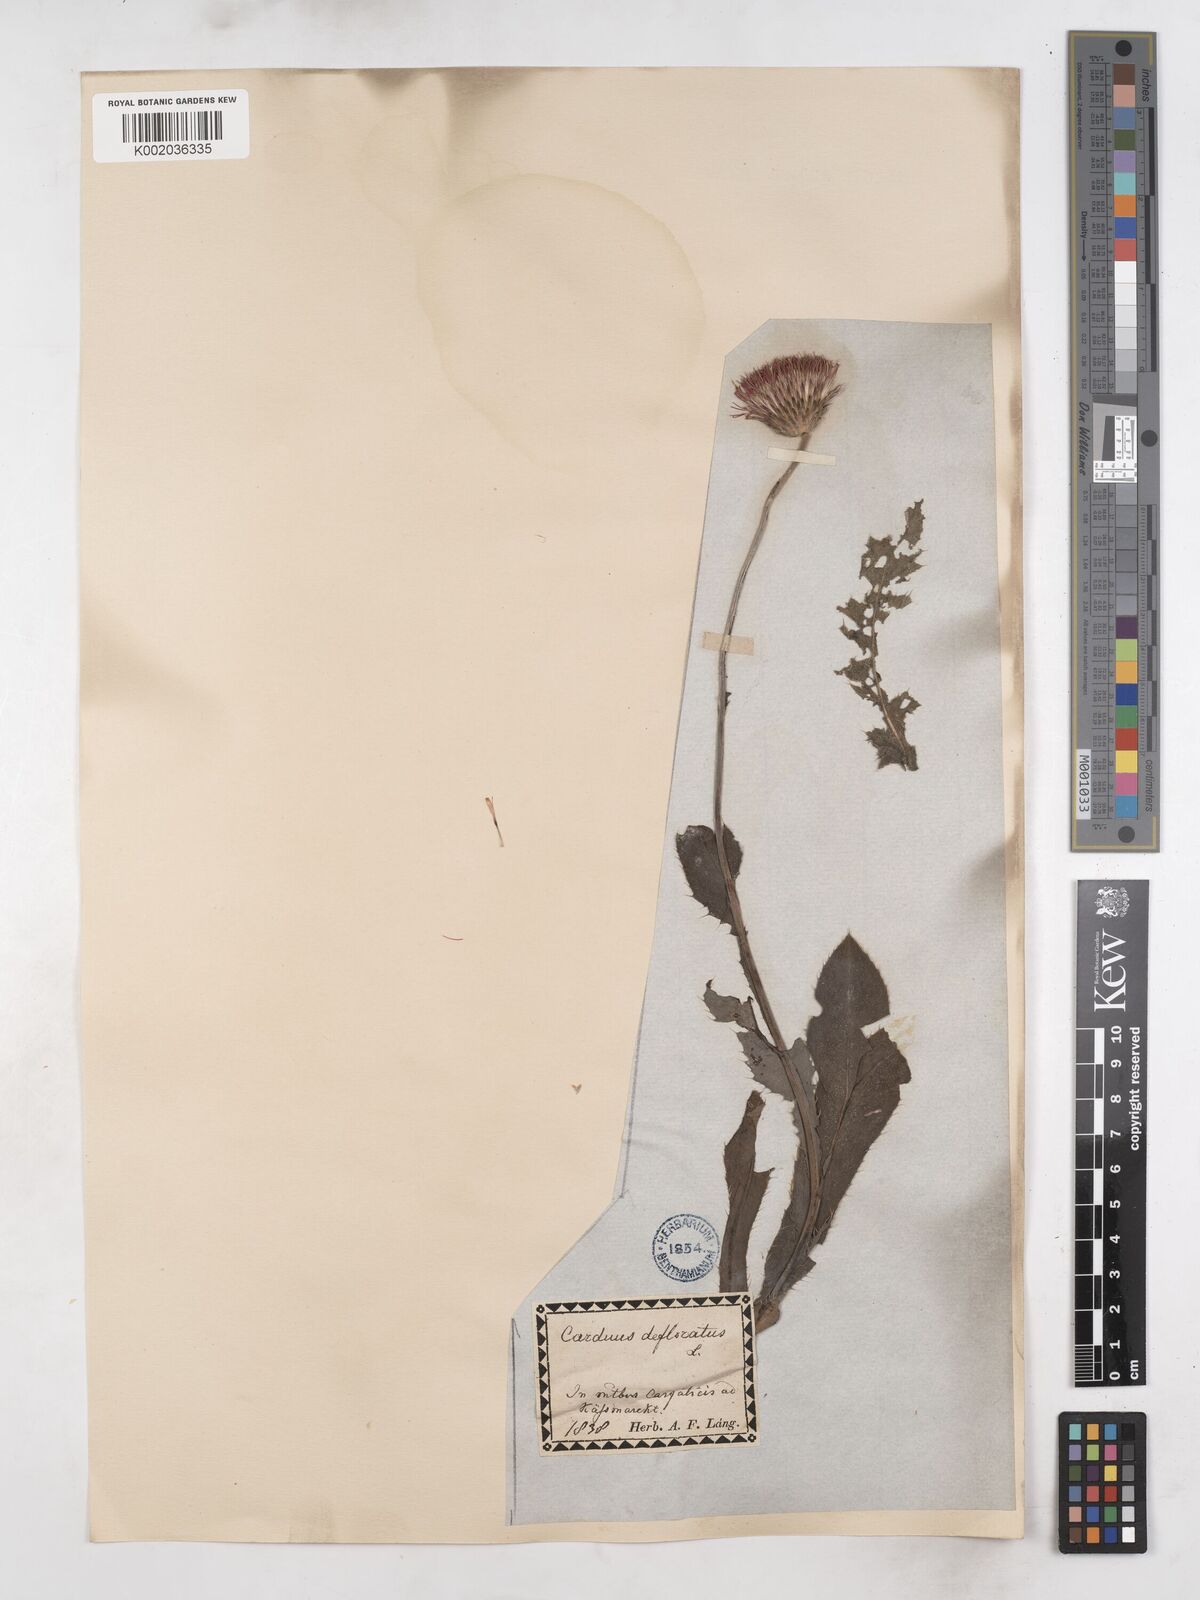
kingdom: Plantae
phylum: Tracheophyta
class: Magnoliopsida
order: Asterales
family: Asteraceae
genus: Carduus
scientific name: Carduus defloratus
